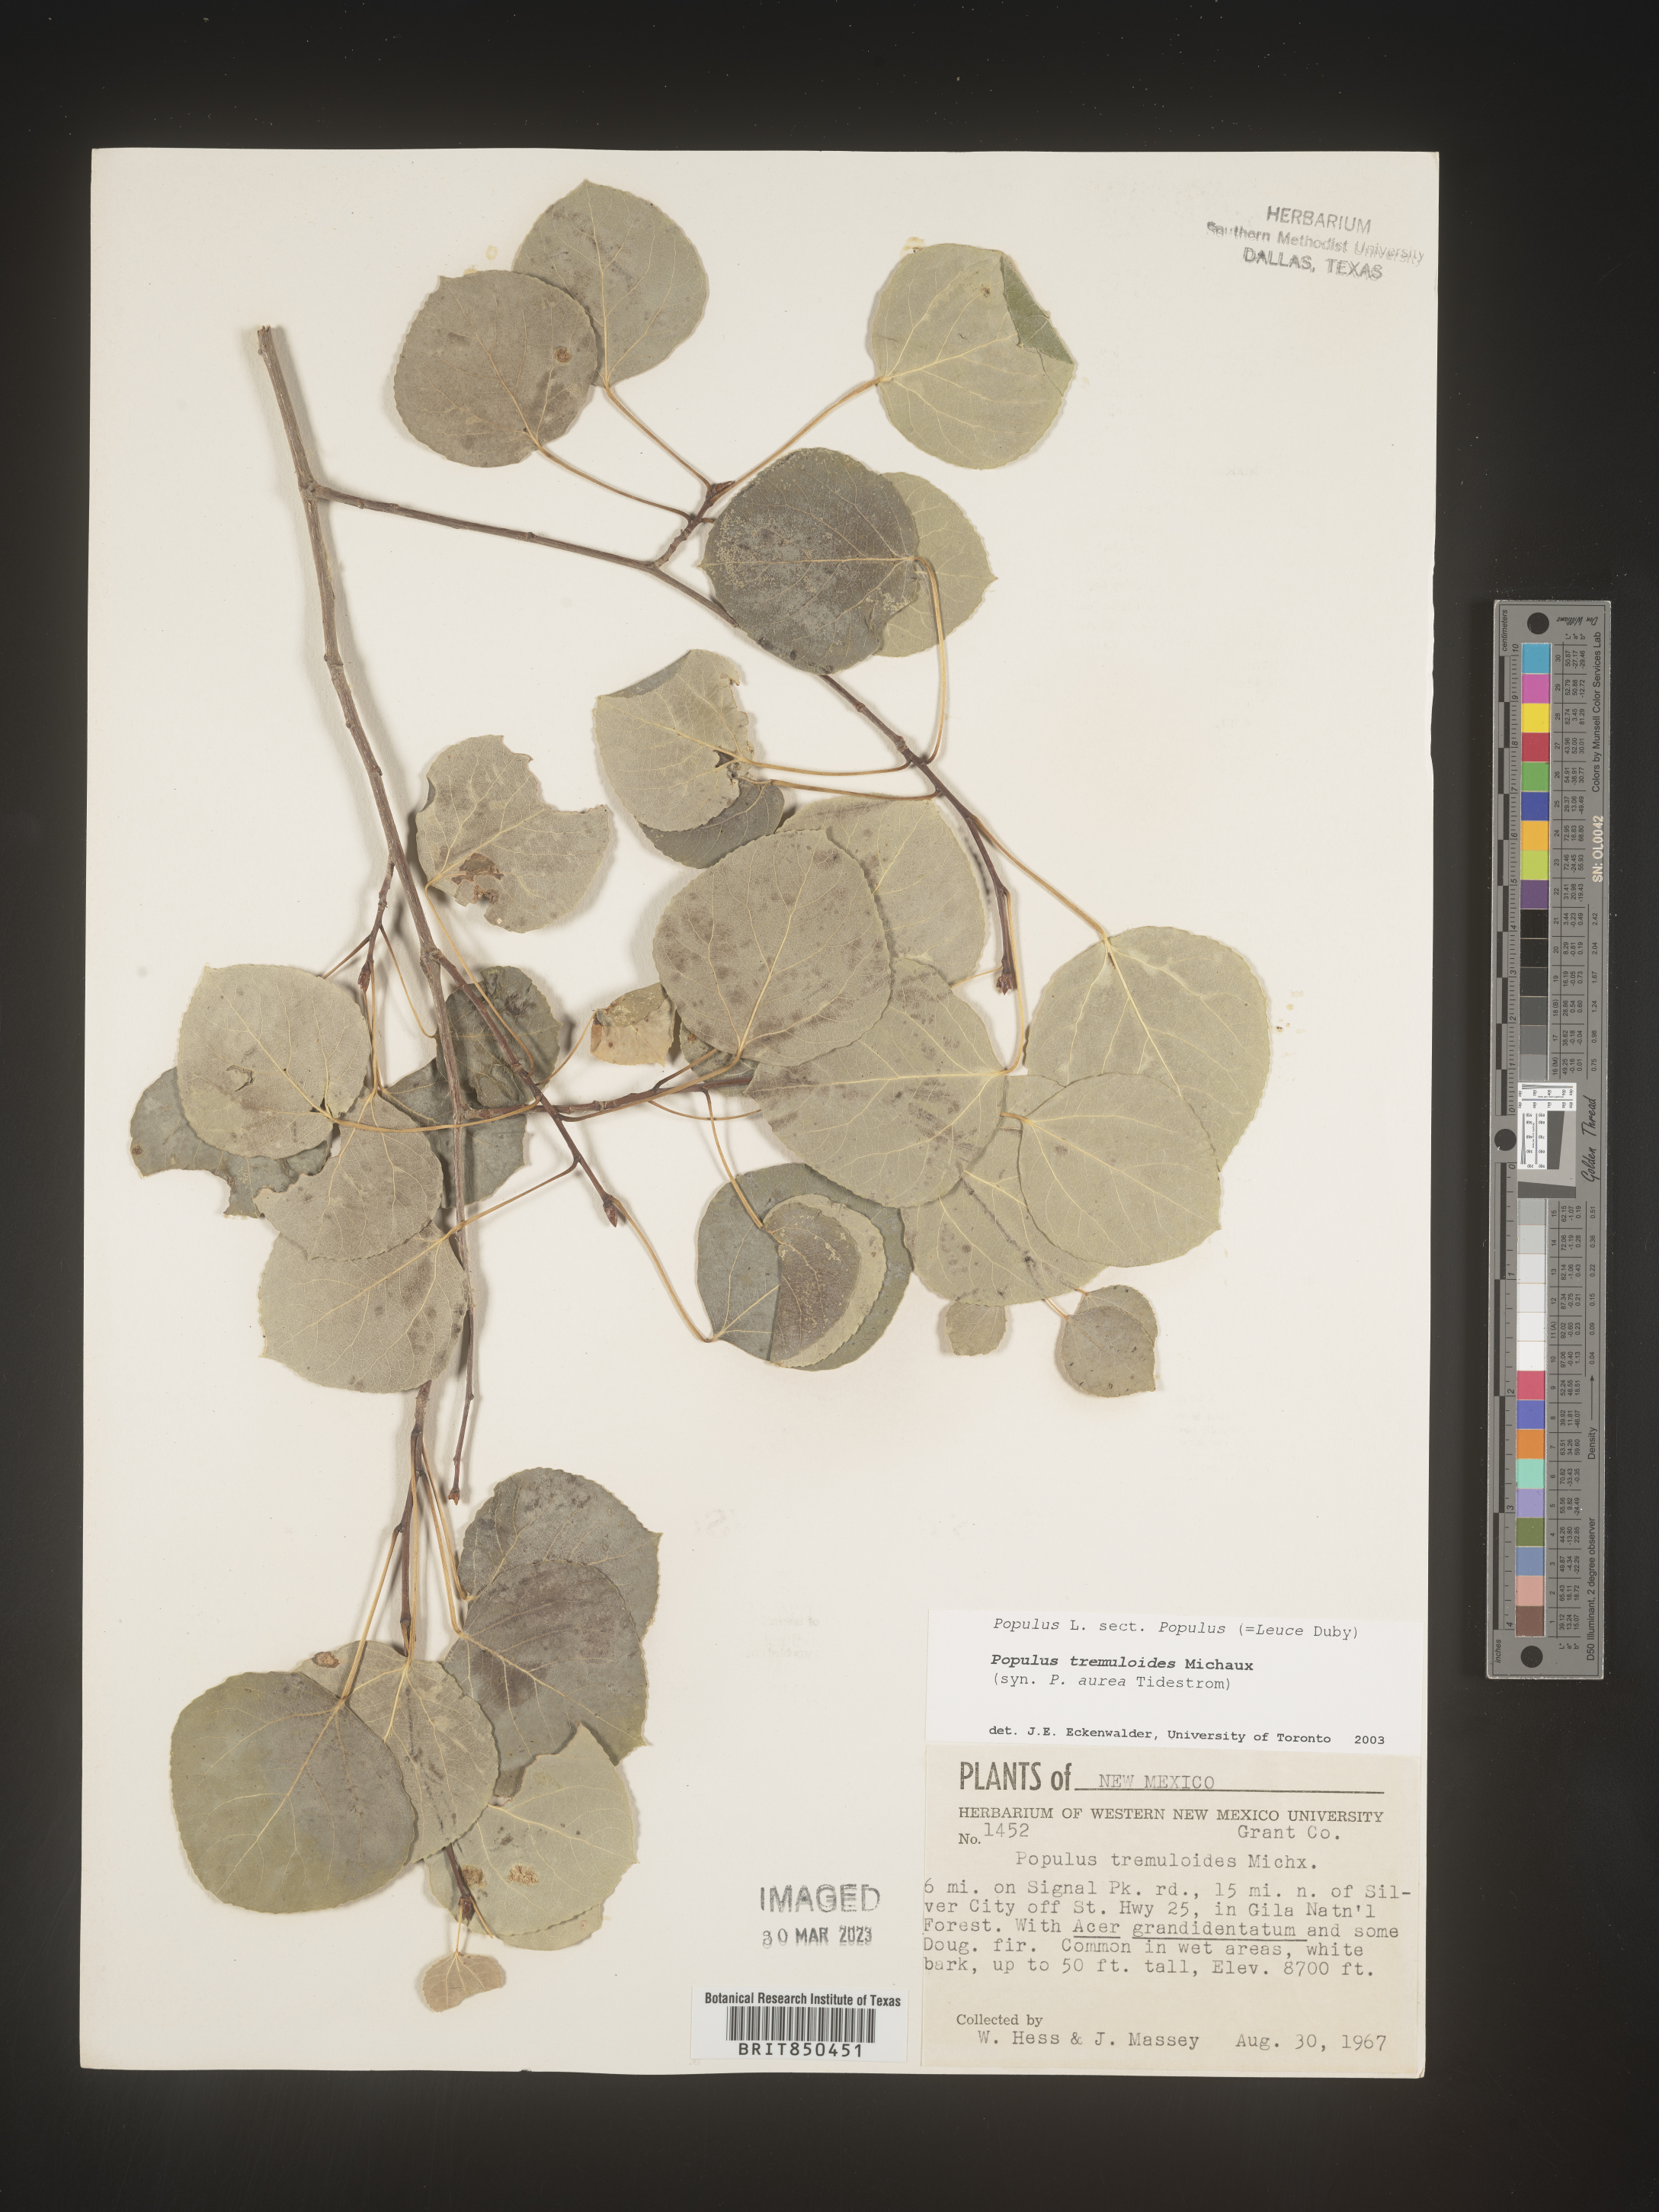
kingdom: Plantae
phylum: Tracheophyta
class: Magnoliopsida
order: Malpighiales
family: Salicaceae
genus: Populus
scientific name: Populus tremuloides
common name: Quaking aspen
